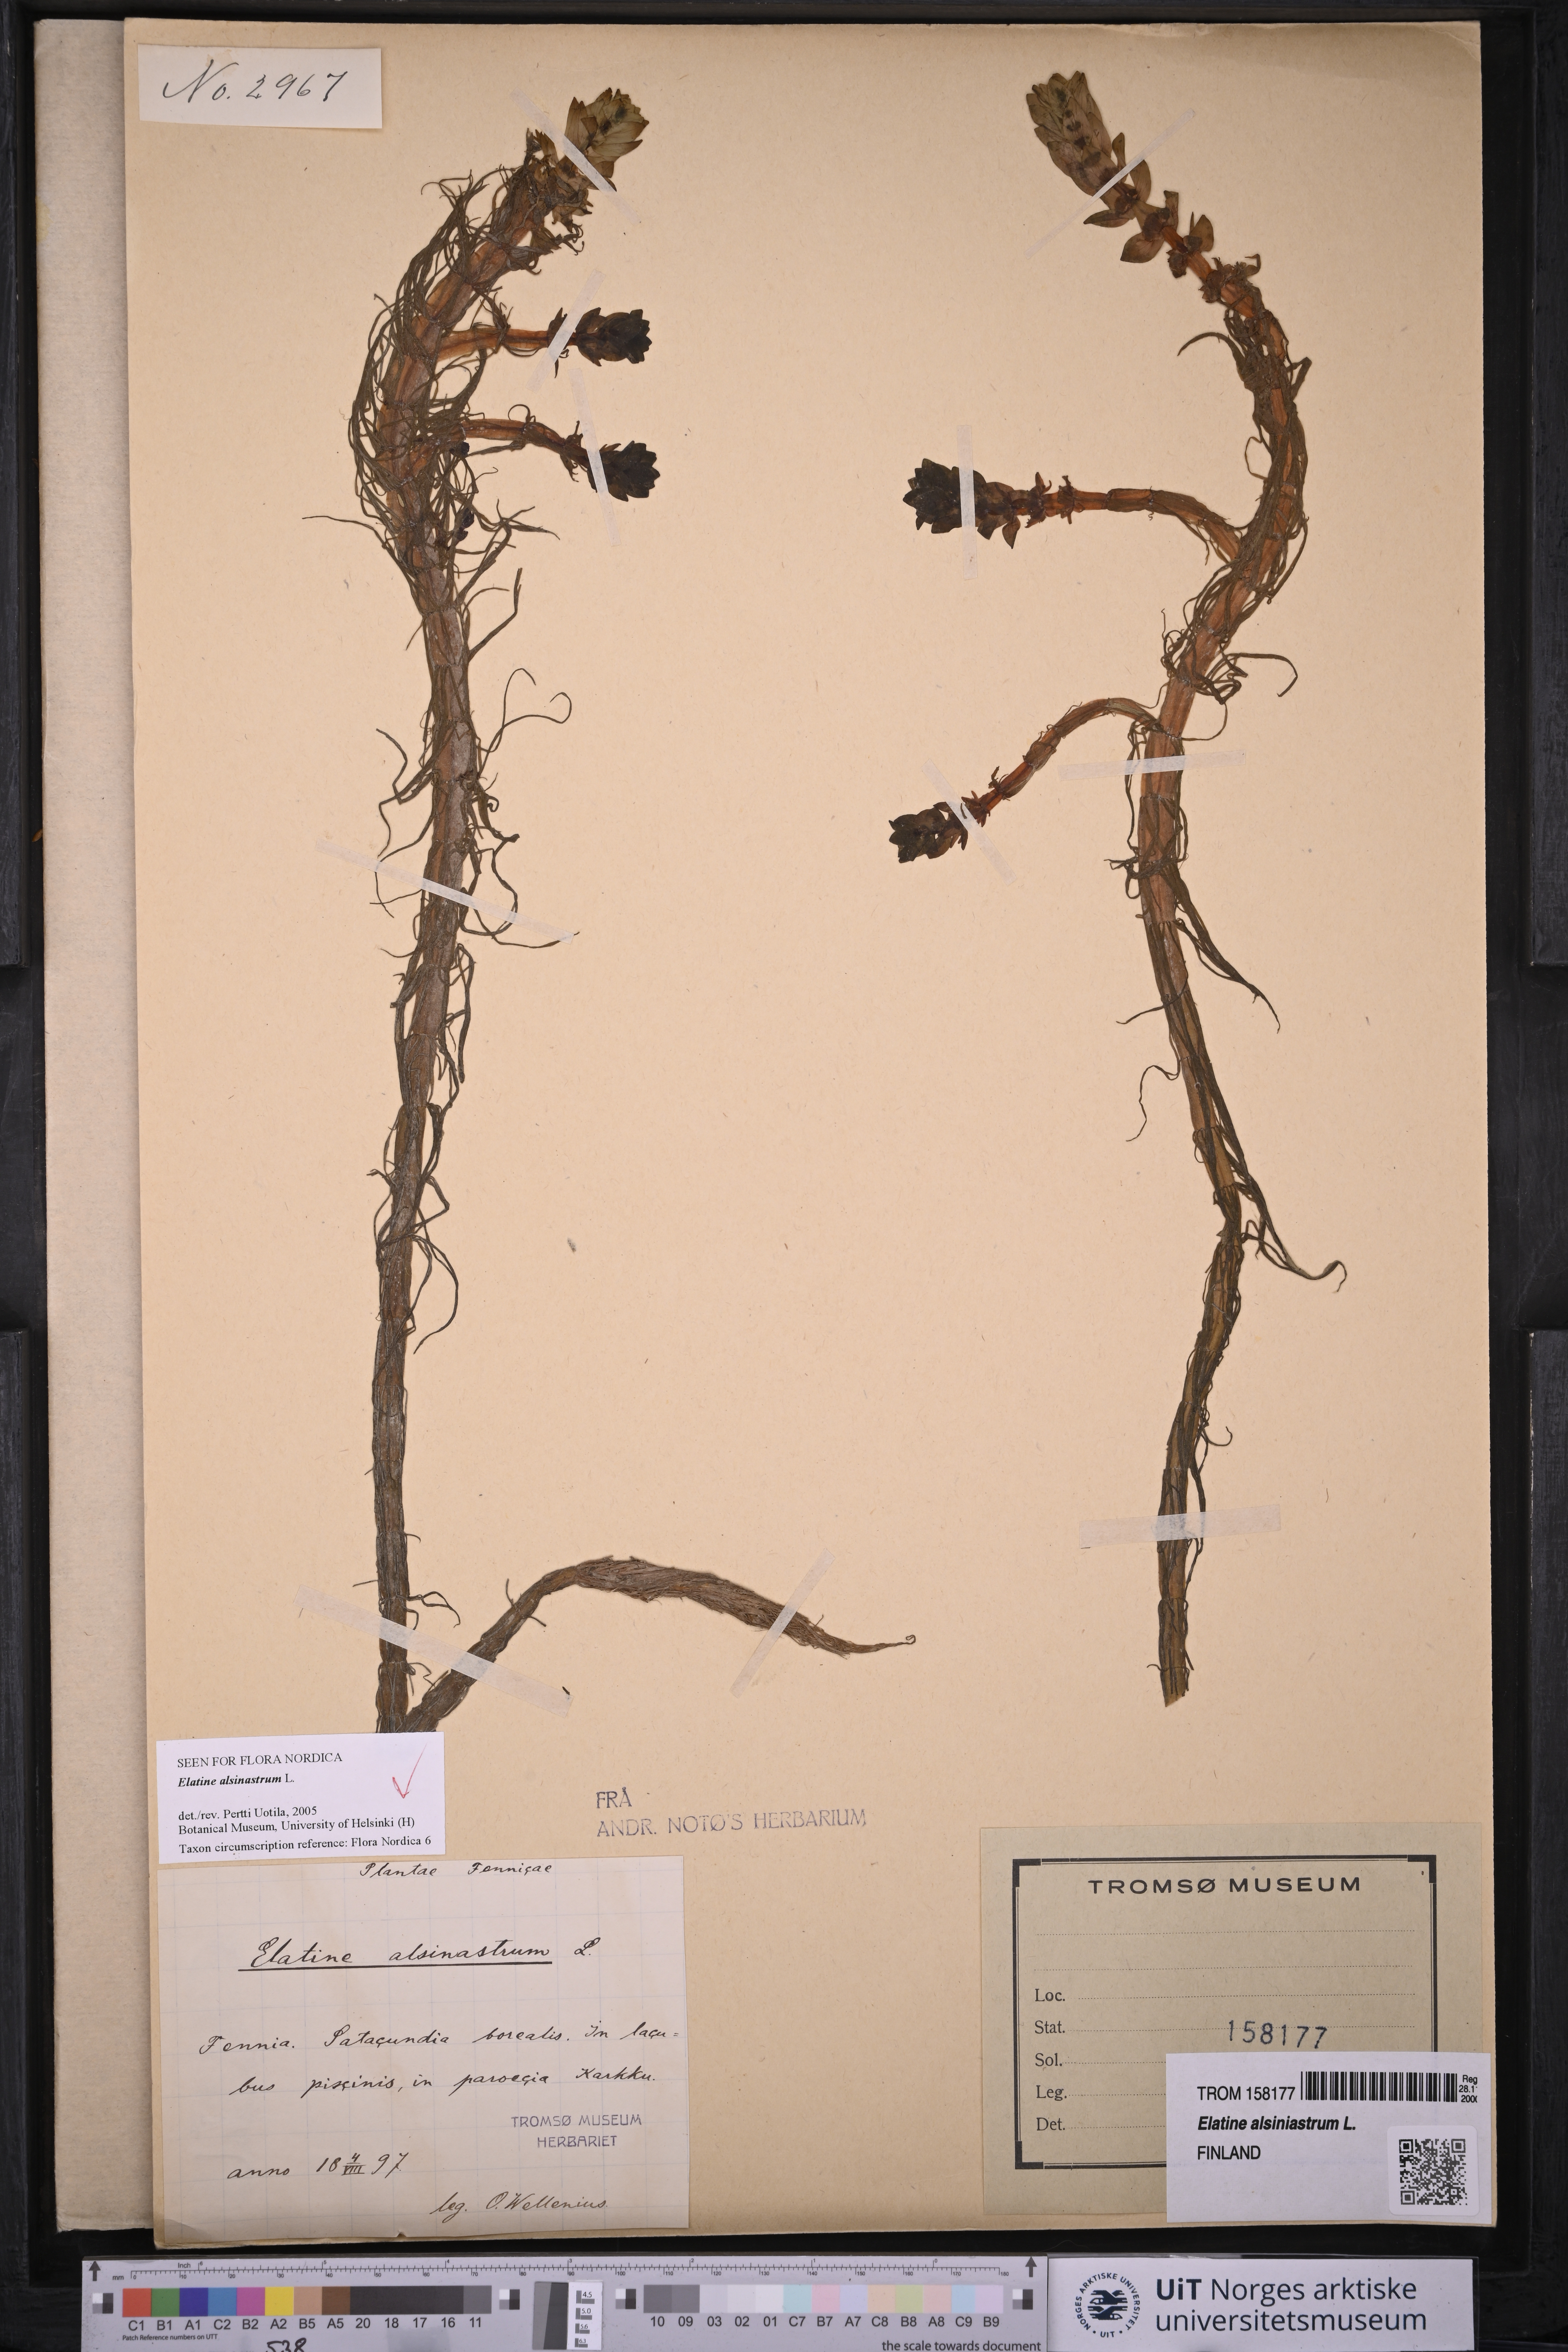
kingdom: Plantae
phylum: Tracheophyta
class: Magnoliopsida
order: Malpighiales
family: Elatinaceae
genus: Elatine
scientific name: Elatine alsinastrum
